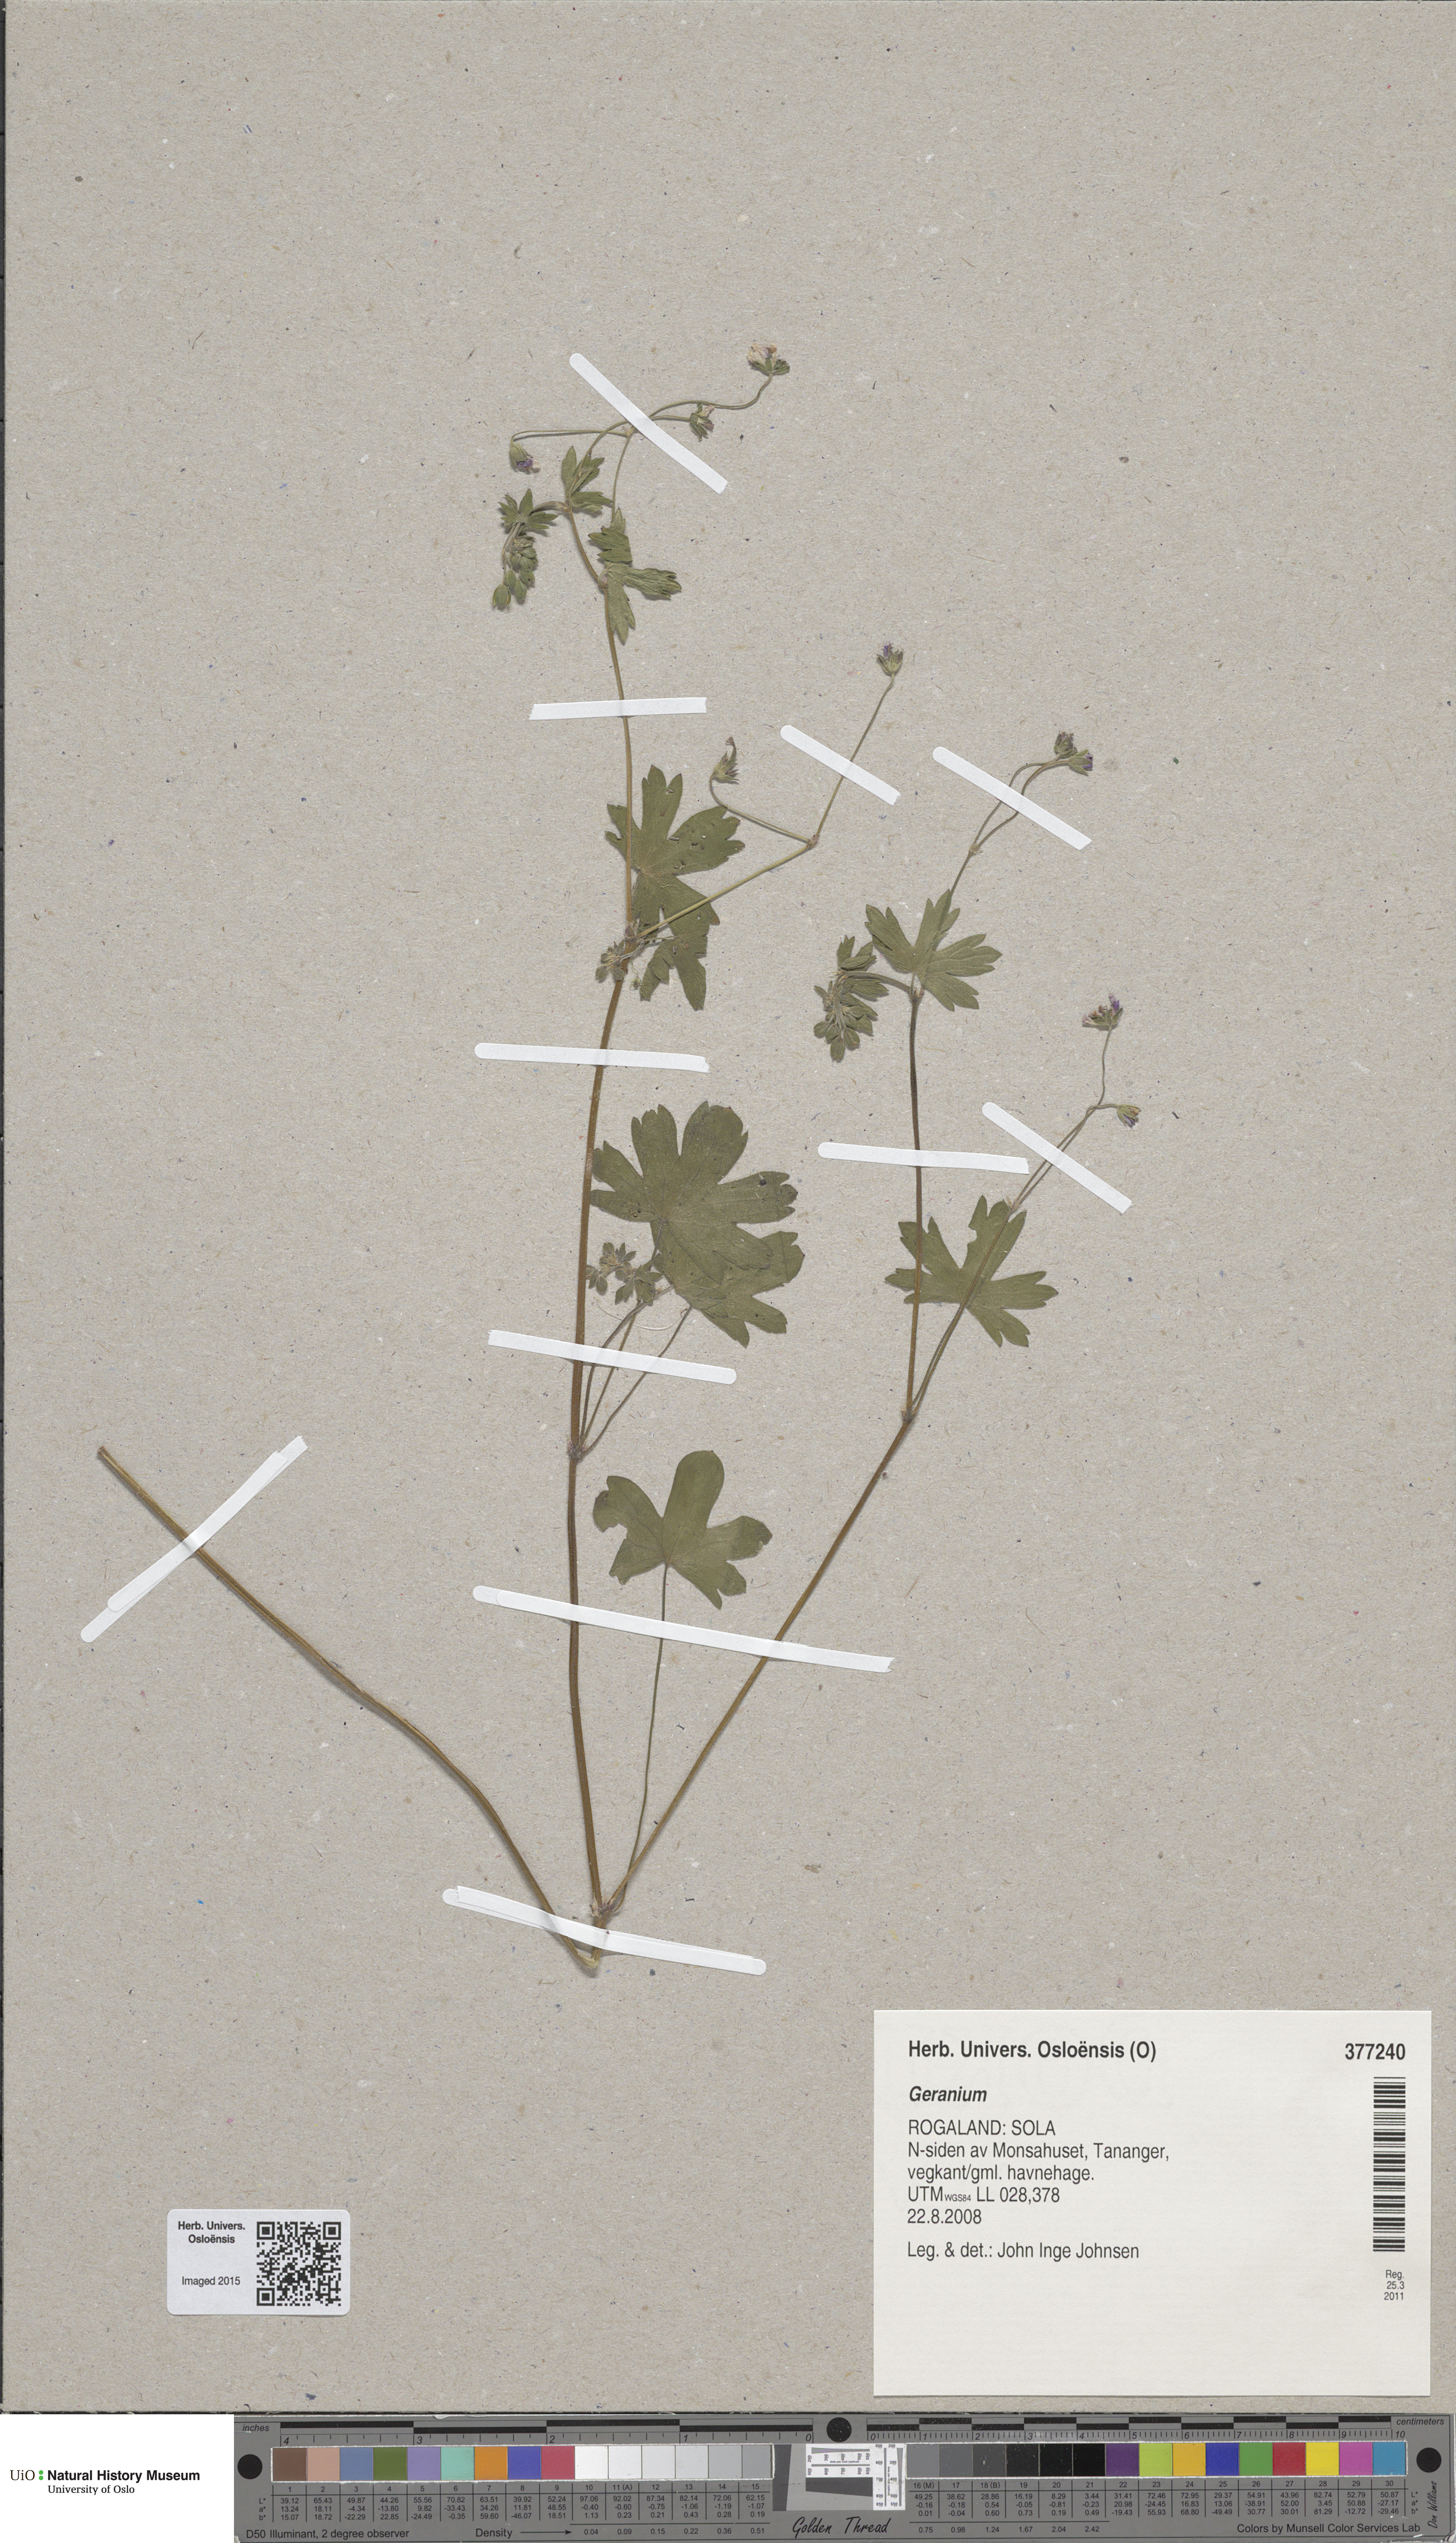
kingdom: Plantae
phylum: Tracheophyta
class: Magnoliopsida
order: Geraniales
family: Geraniaceae
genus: Geranium
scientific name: Geranium pusillum
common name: Small geranium
